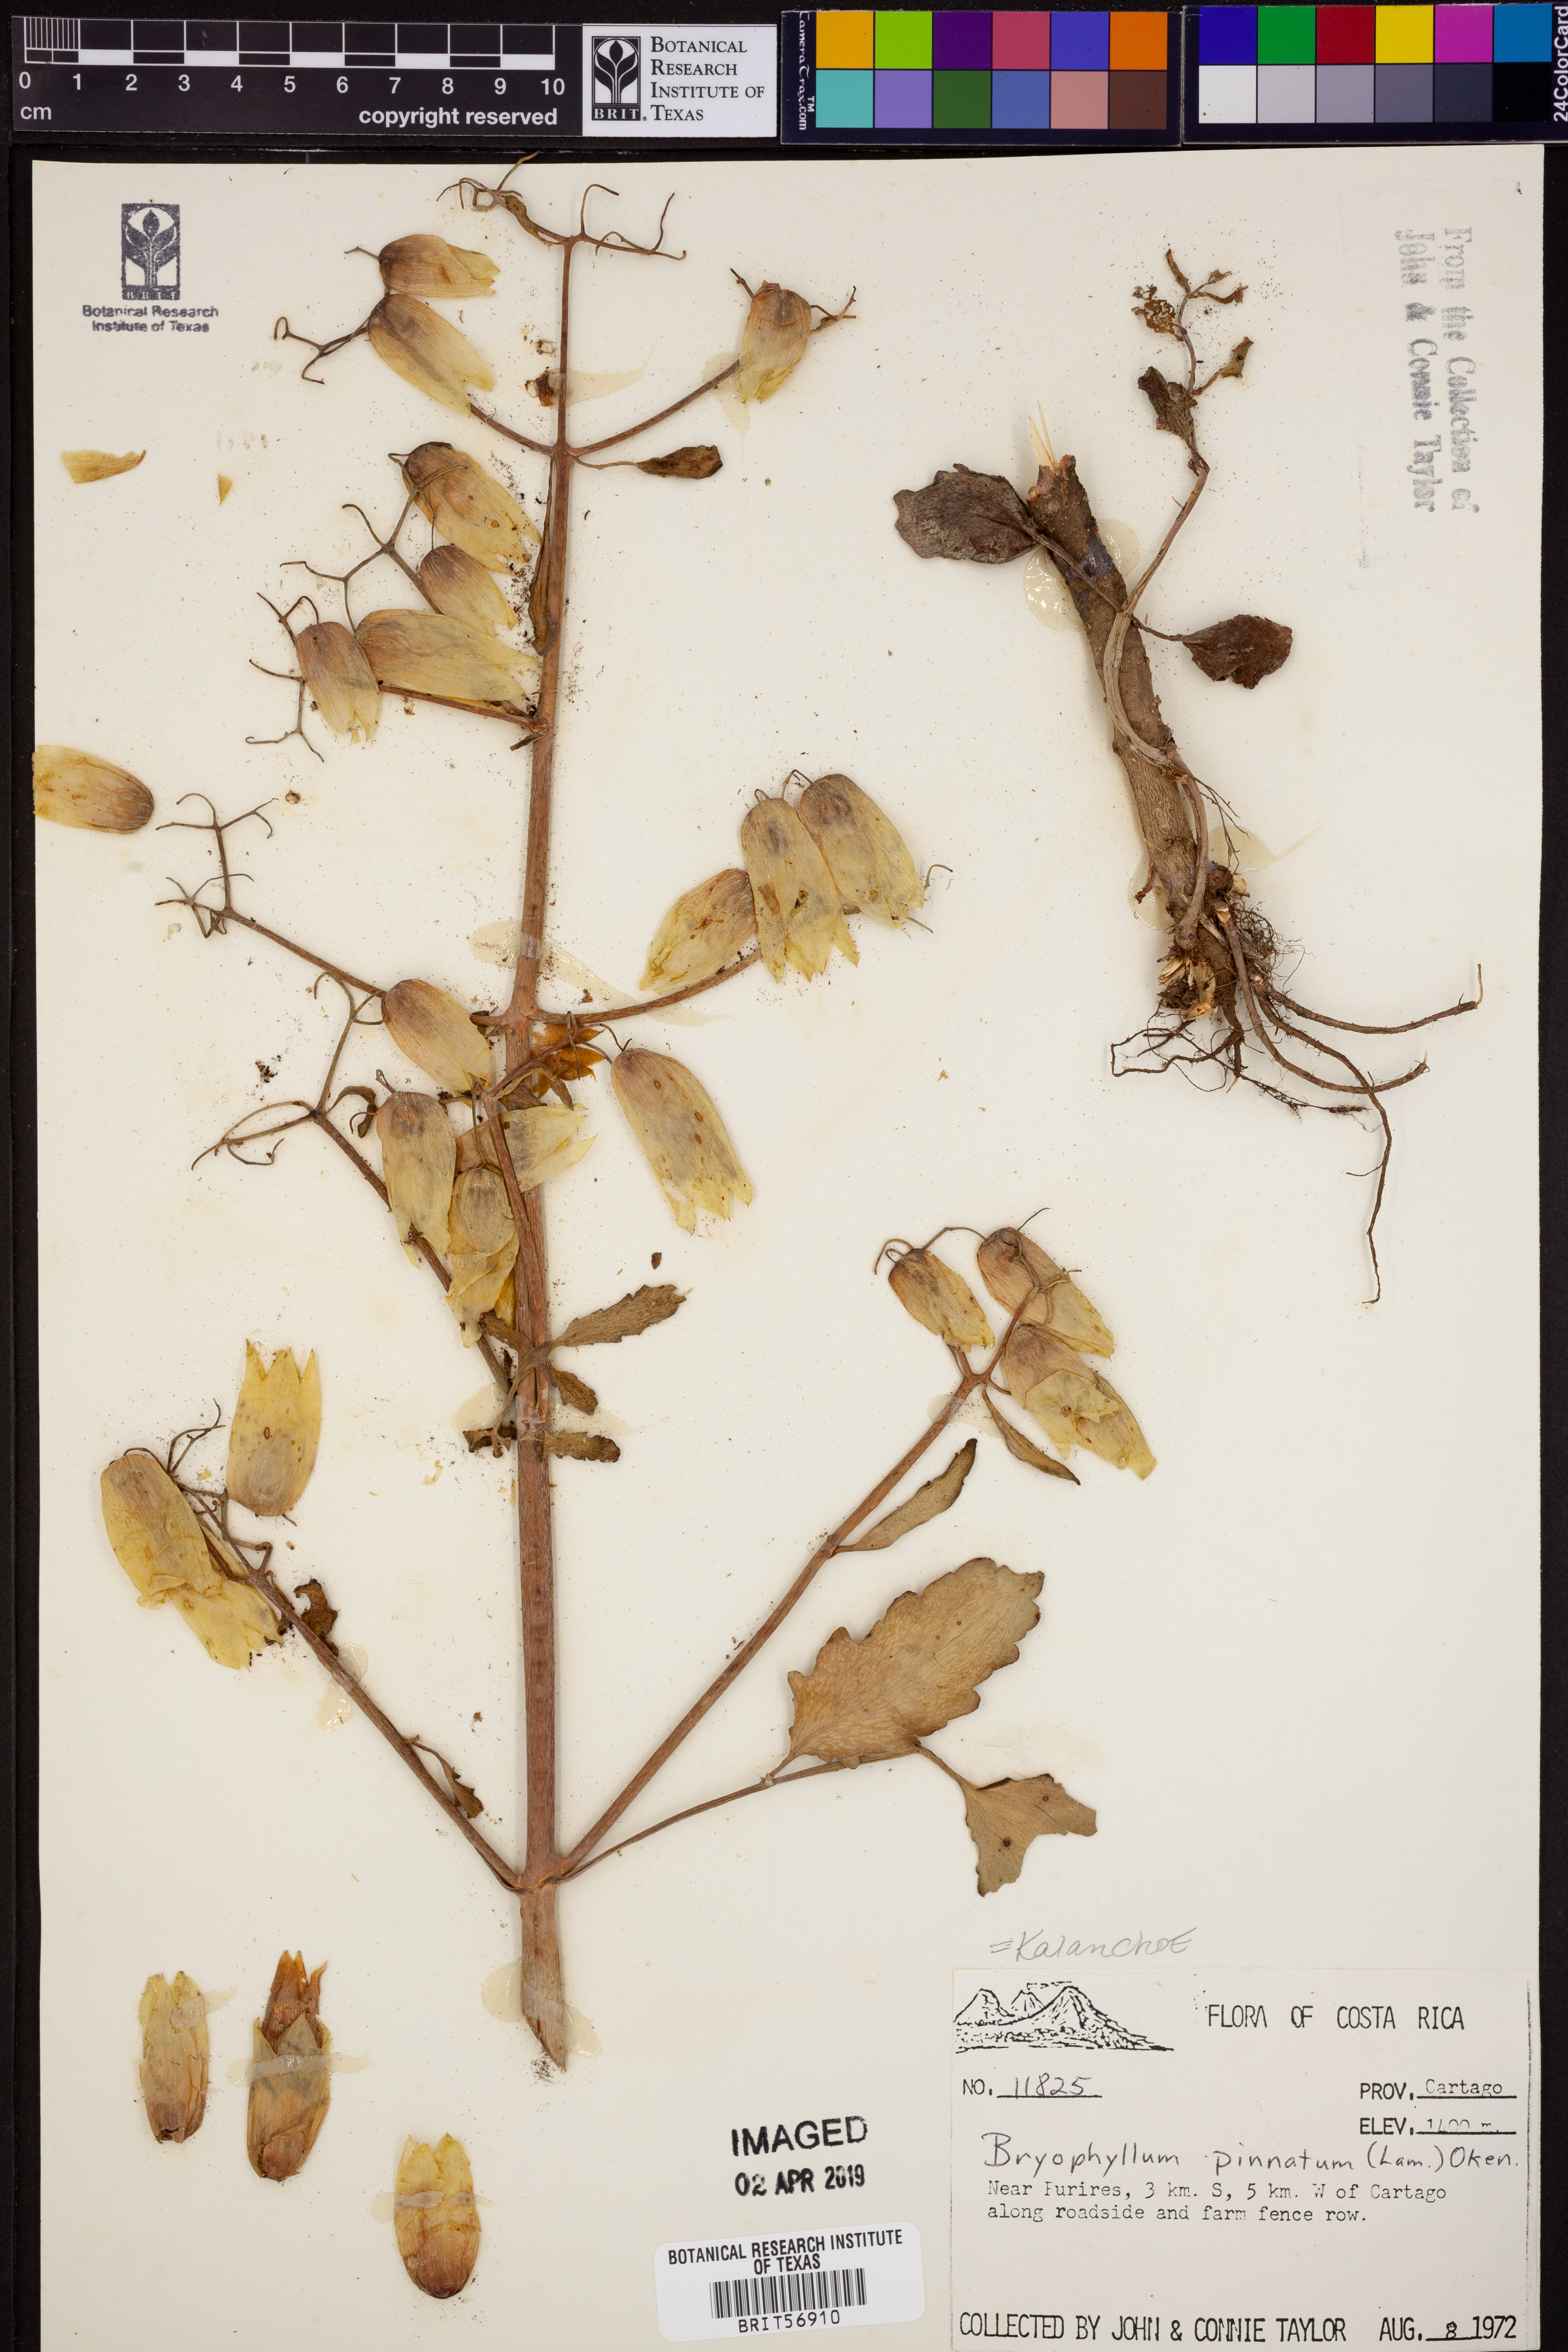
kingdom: Plantae
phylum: Tracheophyta
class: Magnoliopsida
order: Saxifragales
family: Crassulaceae
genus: Kalanchoe
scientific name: Kalanchoe pinnata
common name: Cathedral bells
